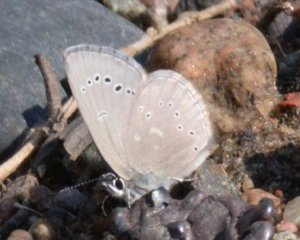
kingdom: Animalia
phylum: Arthropoda
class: Insecta
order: Lepidoptera
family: Lycaenidae
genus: Glaucopsyche
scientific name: Glaucopsyche lygdamus
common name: Silvery Blue
